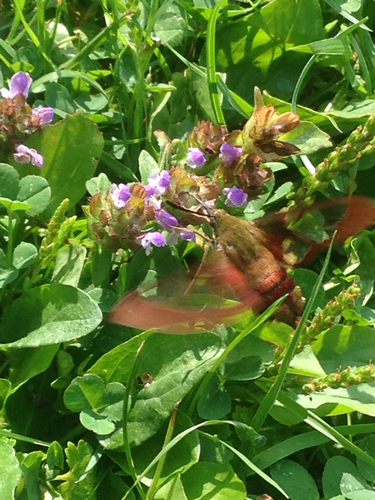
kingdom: Animalia
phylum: Arthropoda
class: Insecta
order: Lepidoptera
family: Sphingidae
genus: Hemaris
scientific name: Hemaris thysbe
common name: Common clear-wing
